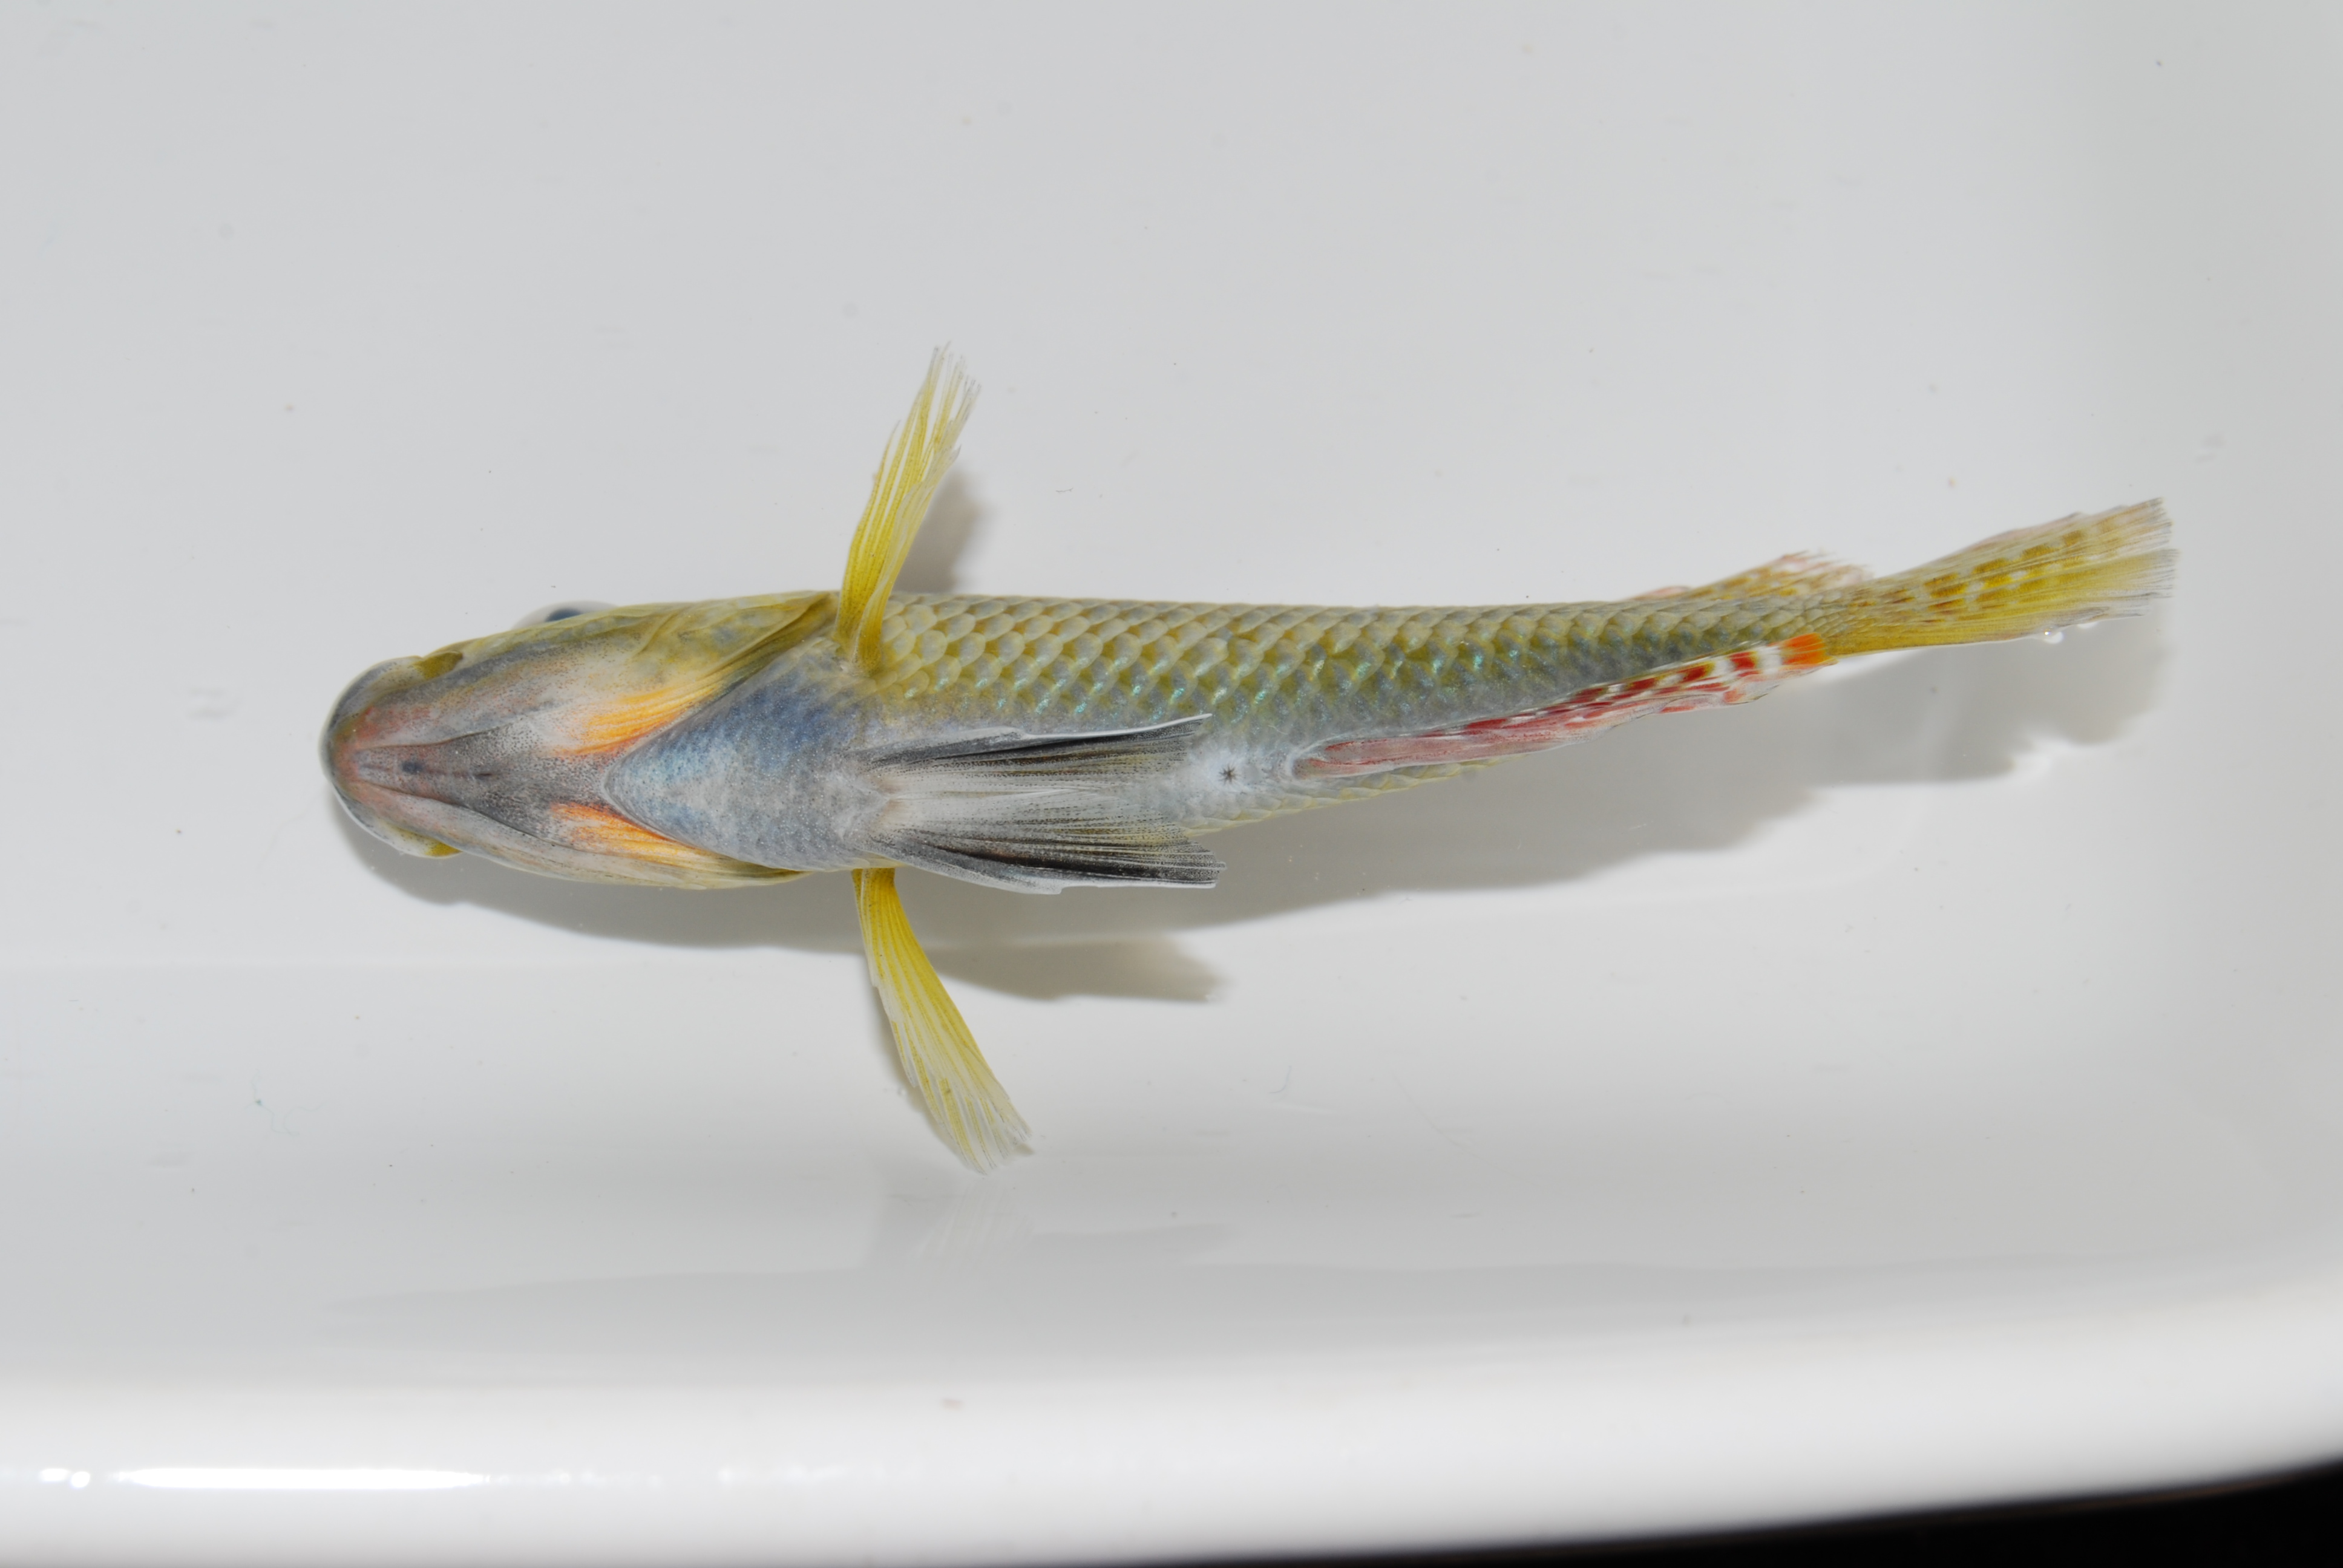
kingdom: Animalia
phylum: Chordata
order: Perciformes
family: Cichlidae
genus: Pseudocrenilabrus
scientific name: Pseudocrenilabrus philander
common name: Southern mouthbrooder
